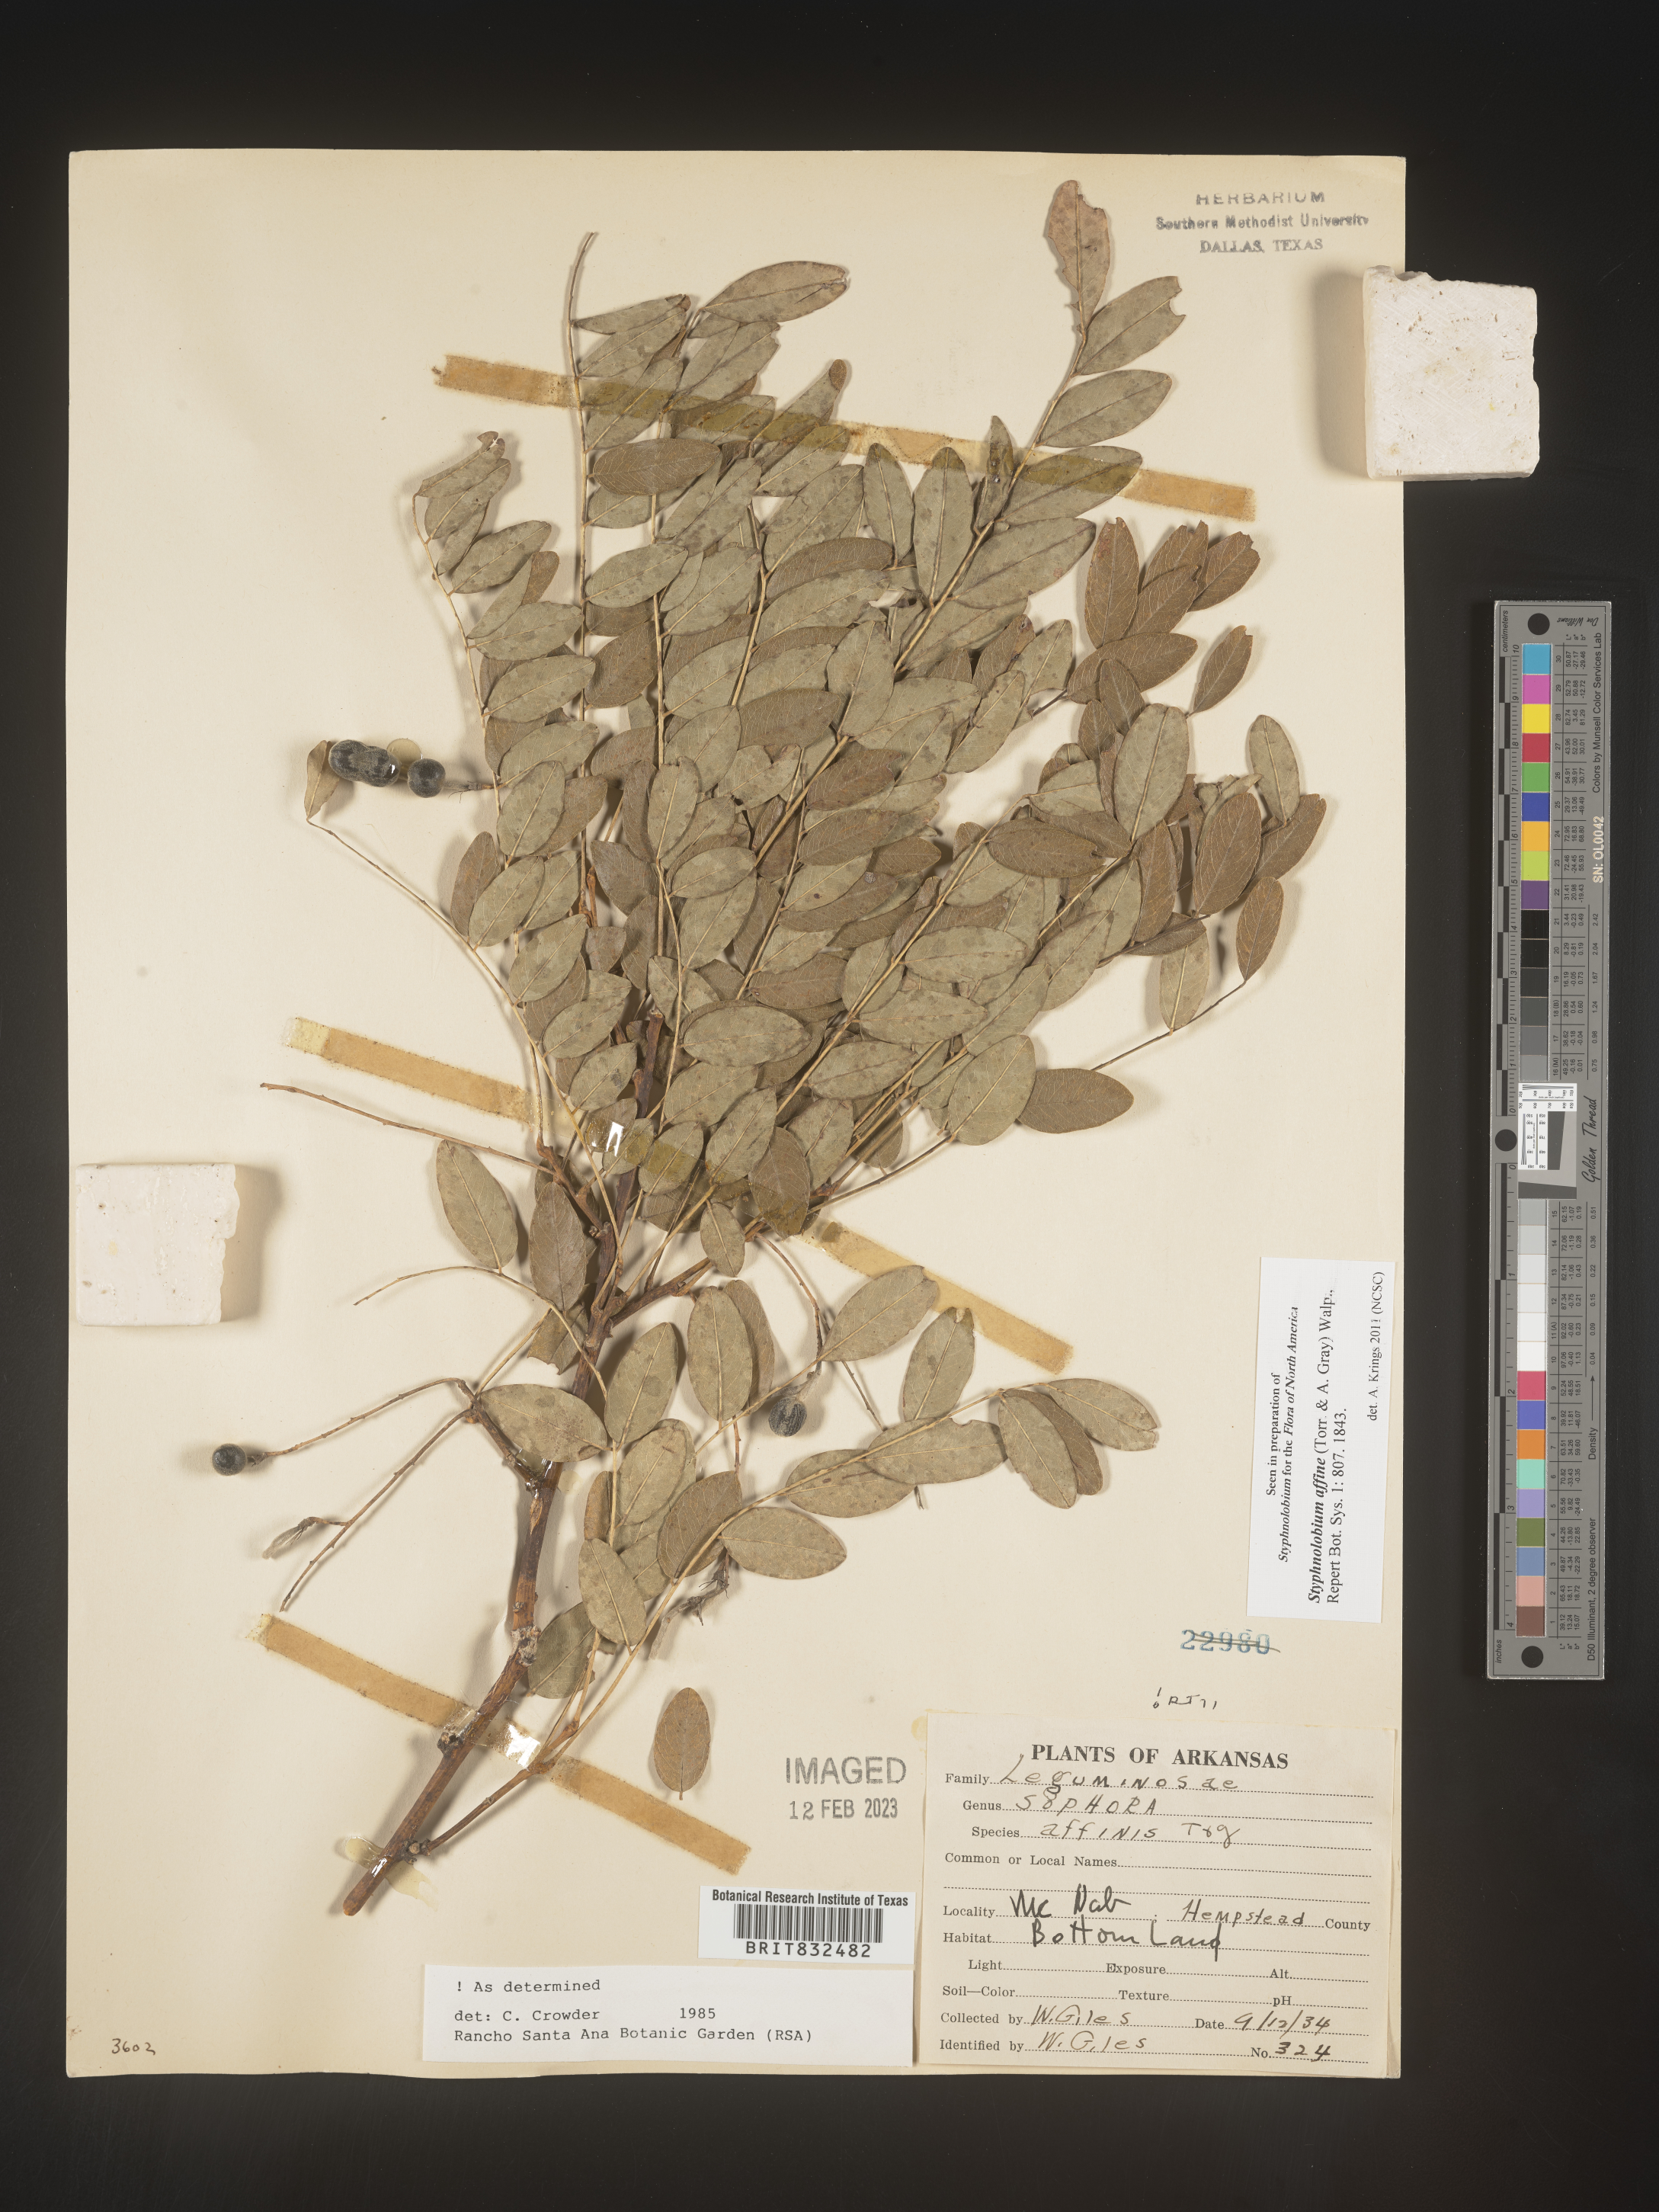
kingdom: Plantae
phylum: Tracheophyta
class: Magnoliopsida
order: Fabales
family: Fabaceae
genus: Styphnolobium
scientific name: Styphnolobium
